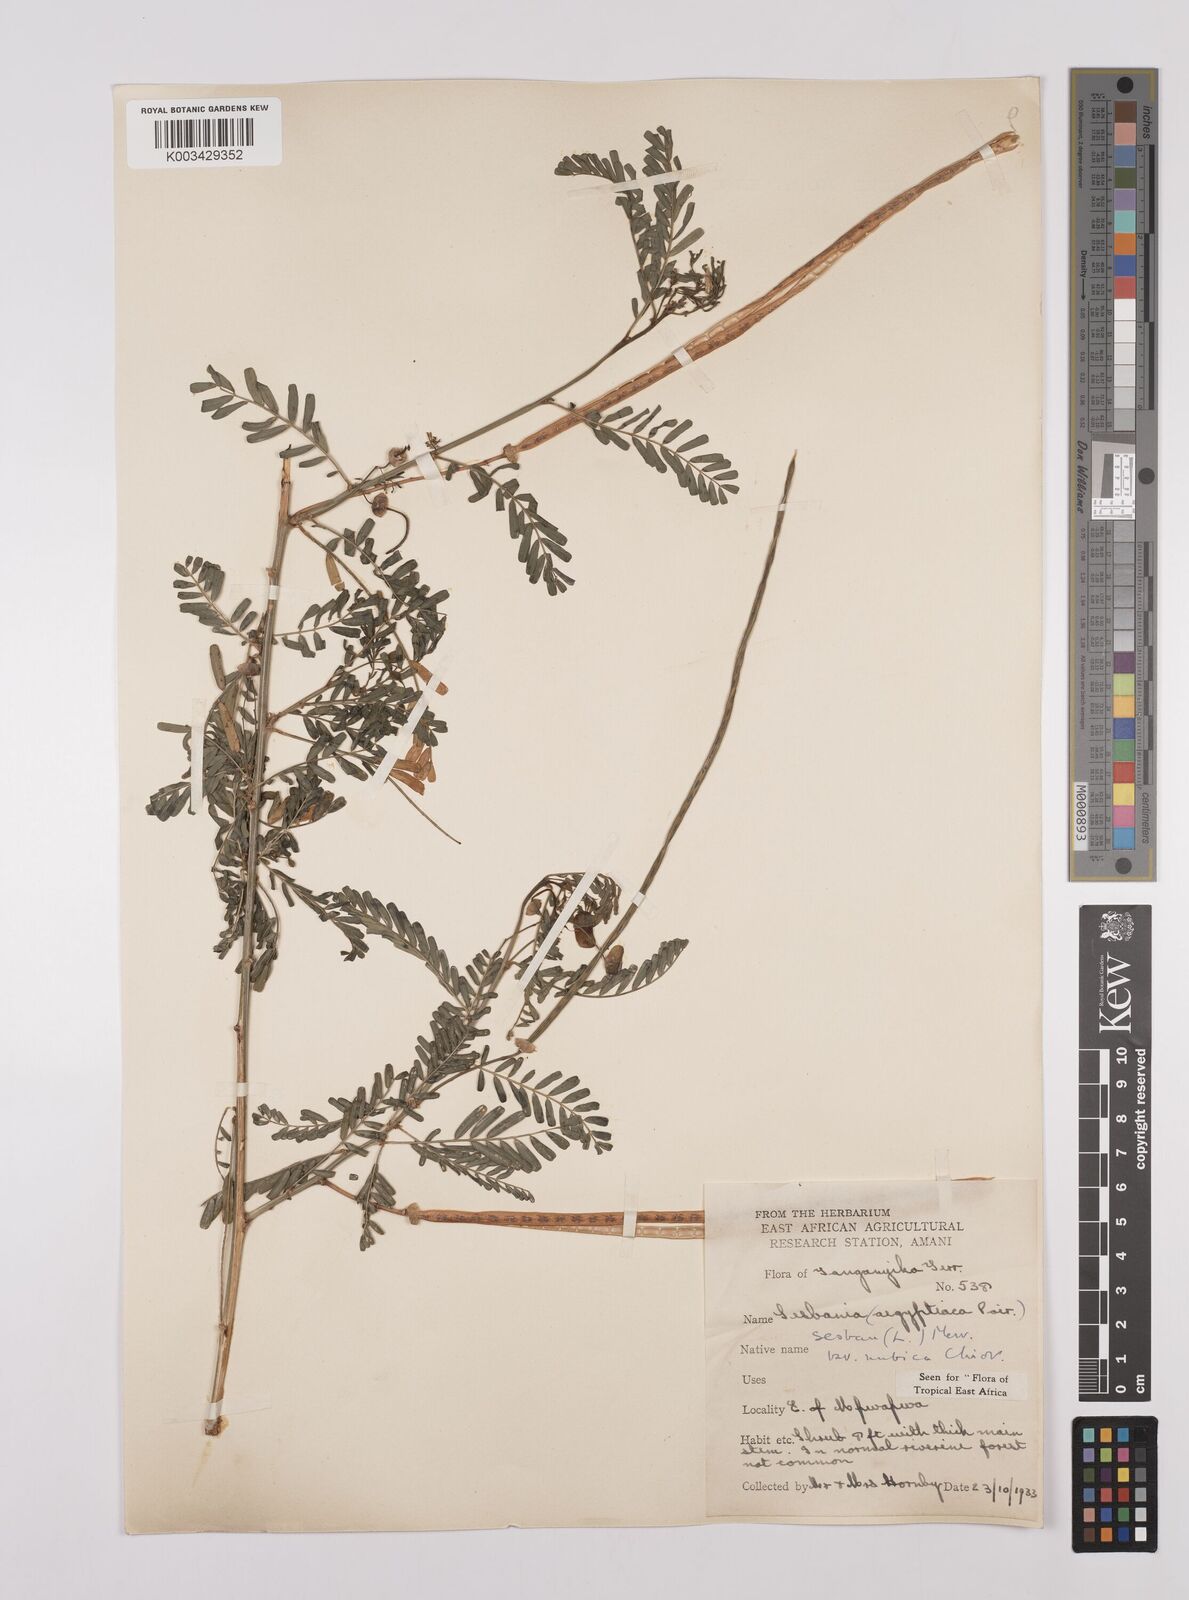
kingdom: Plantae
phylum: Tracheophyta
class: Magnoliopsida
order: Fabales
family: Fabaceae
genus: Sesbania
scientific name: Sesbania sesban
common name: Egyptian sesban
